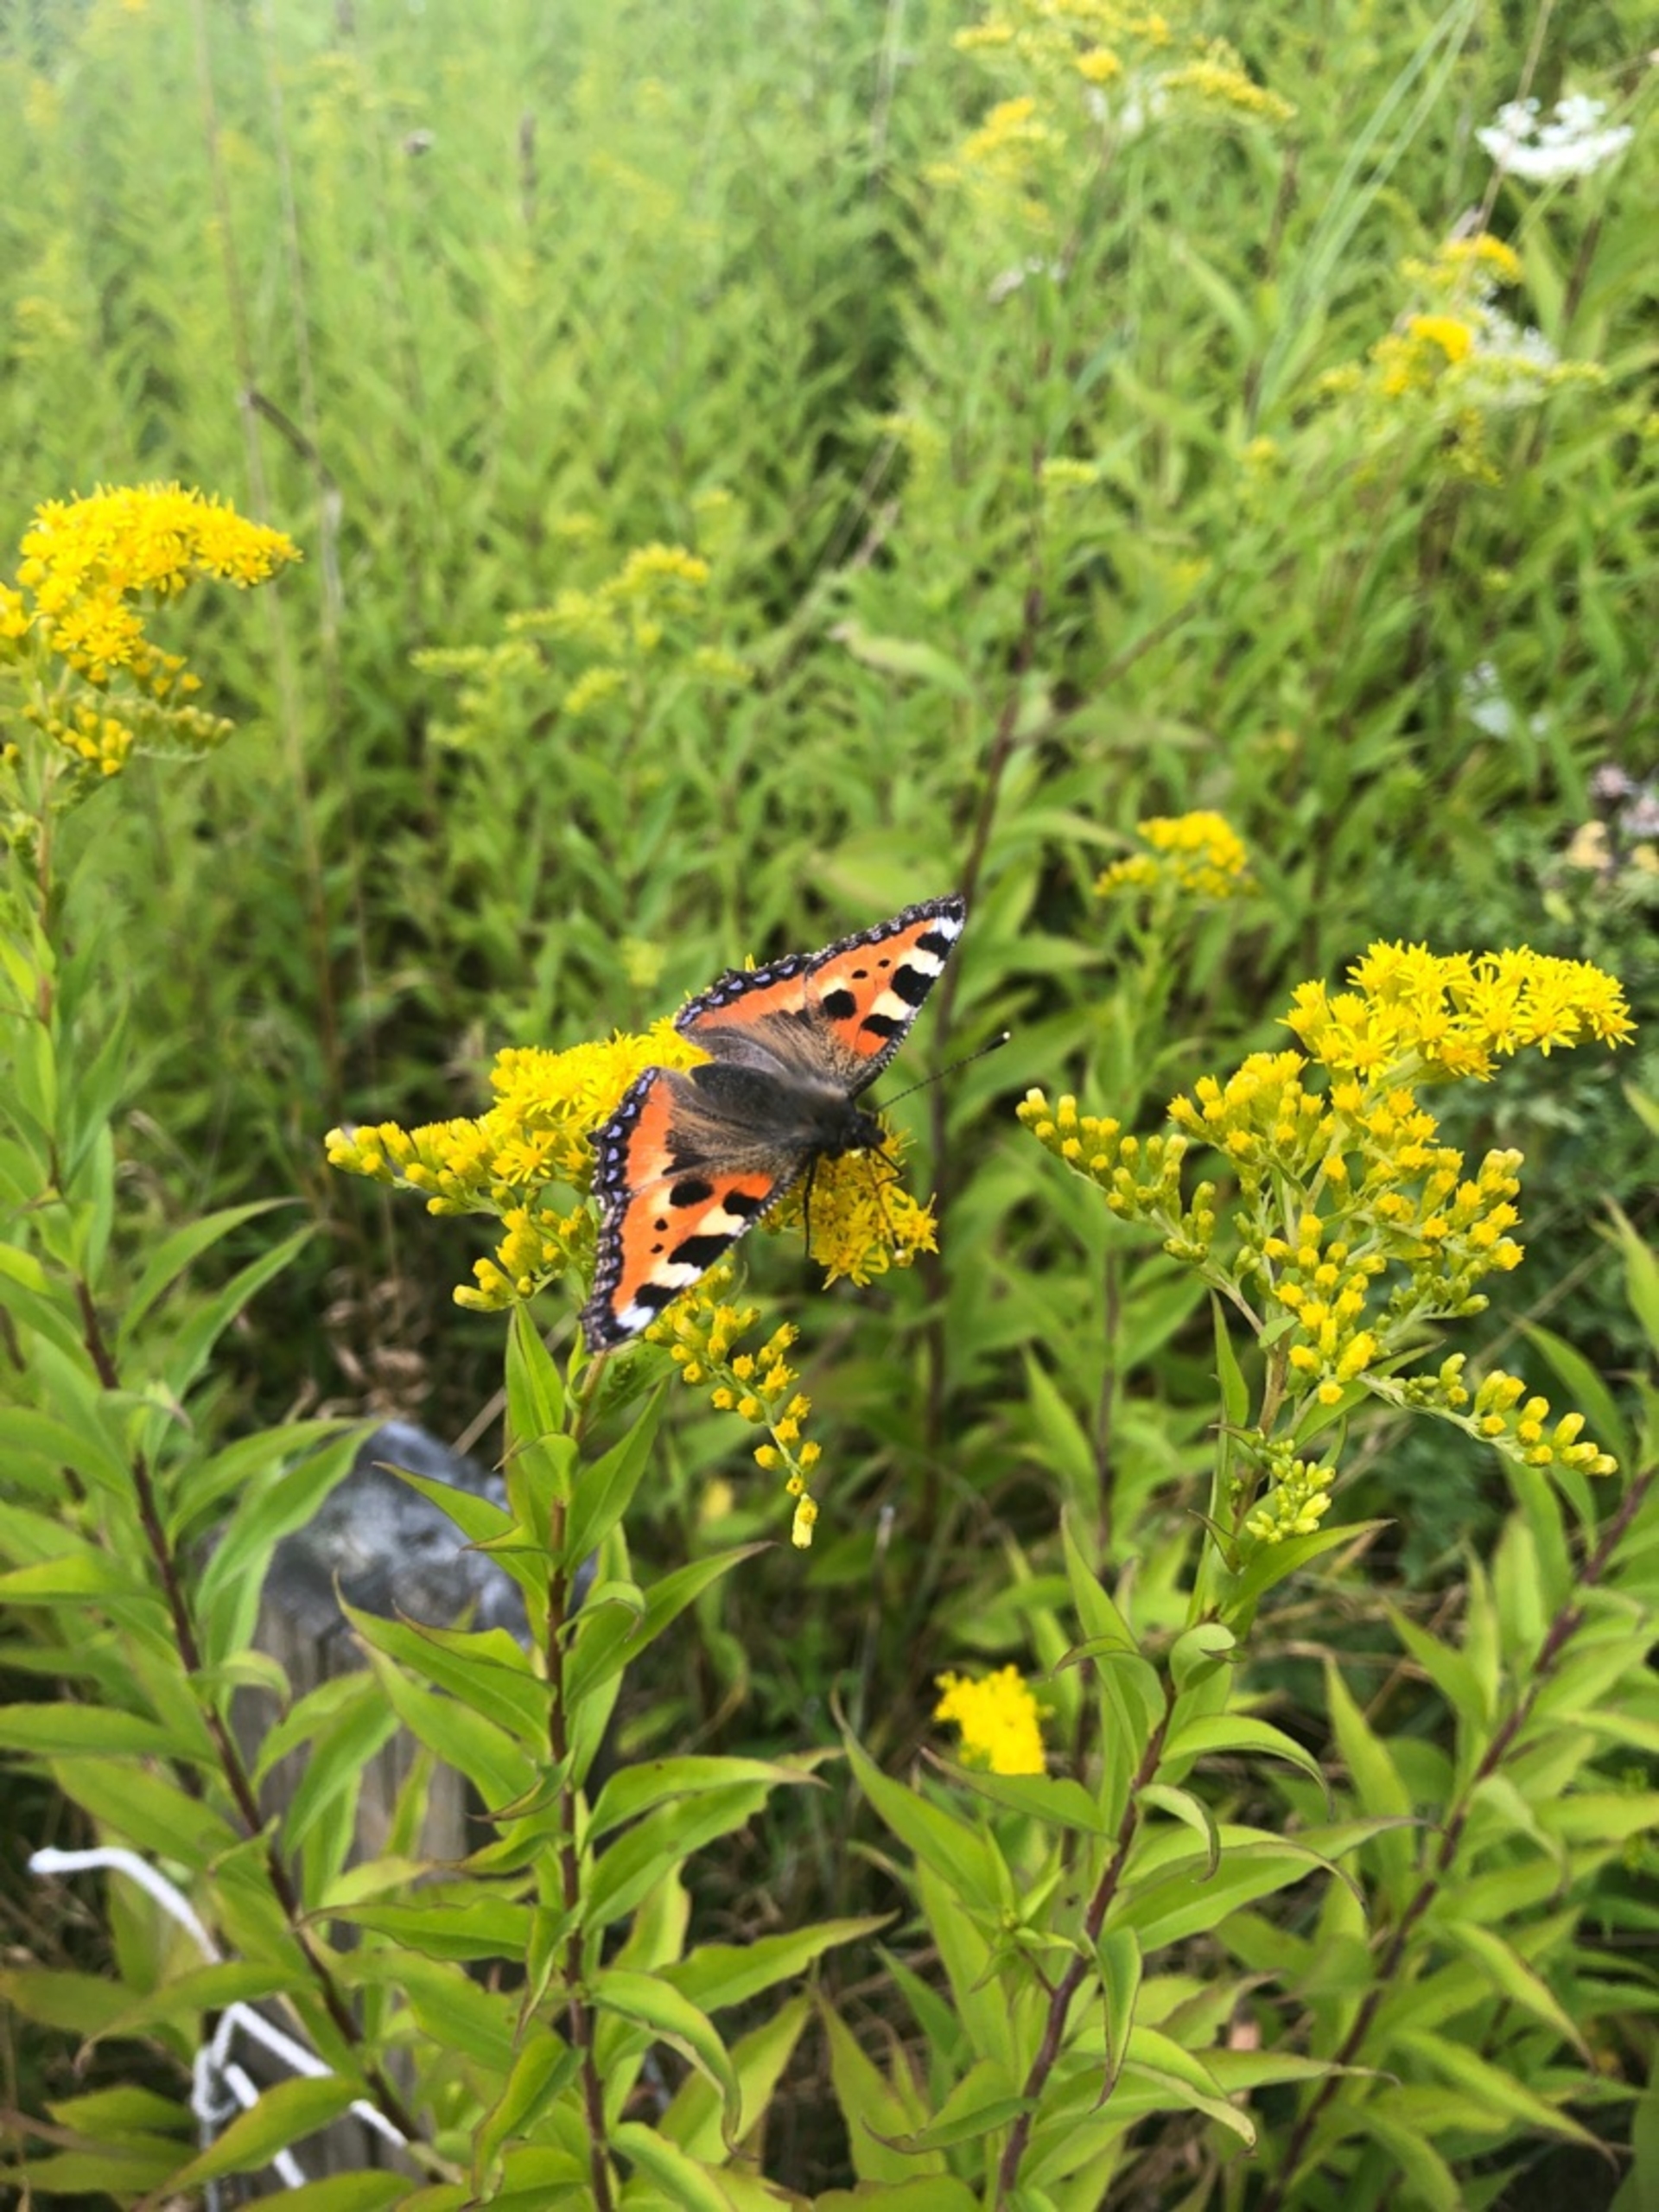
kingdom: Animalia
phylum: Arthropoda
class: Insecta
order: Lepidoptera
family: Nymphalidae
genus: Aglais
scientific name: Aglais urticae
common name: Nældens takvinge
